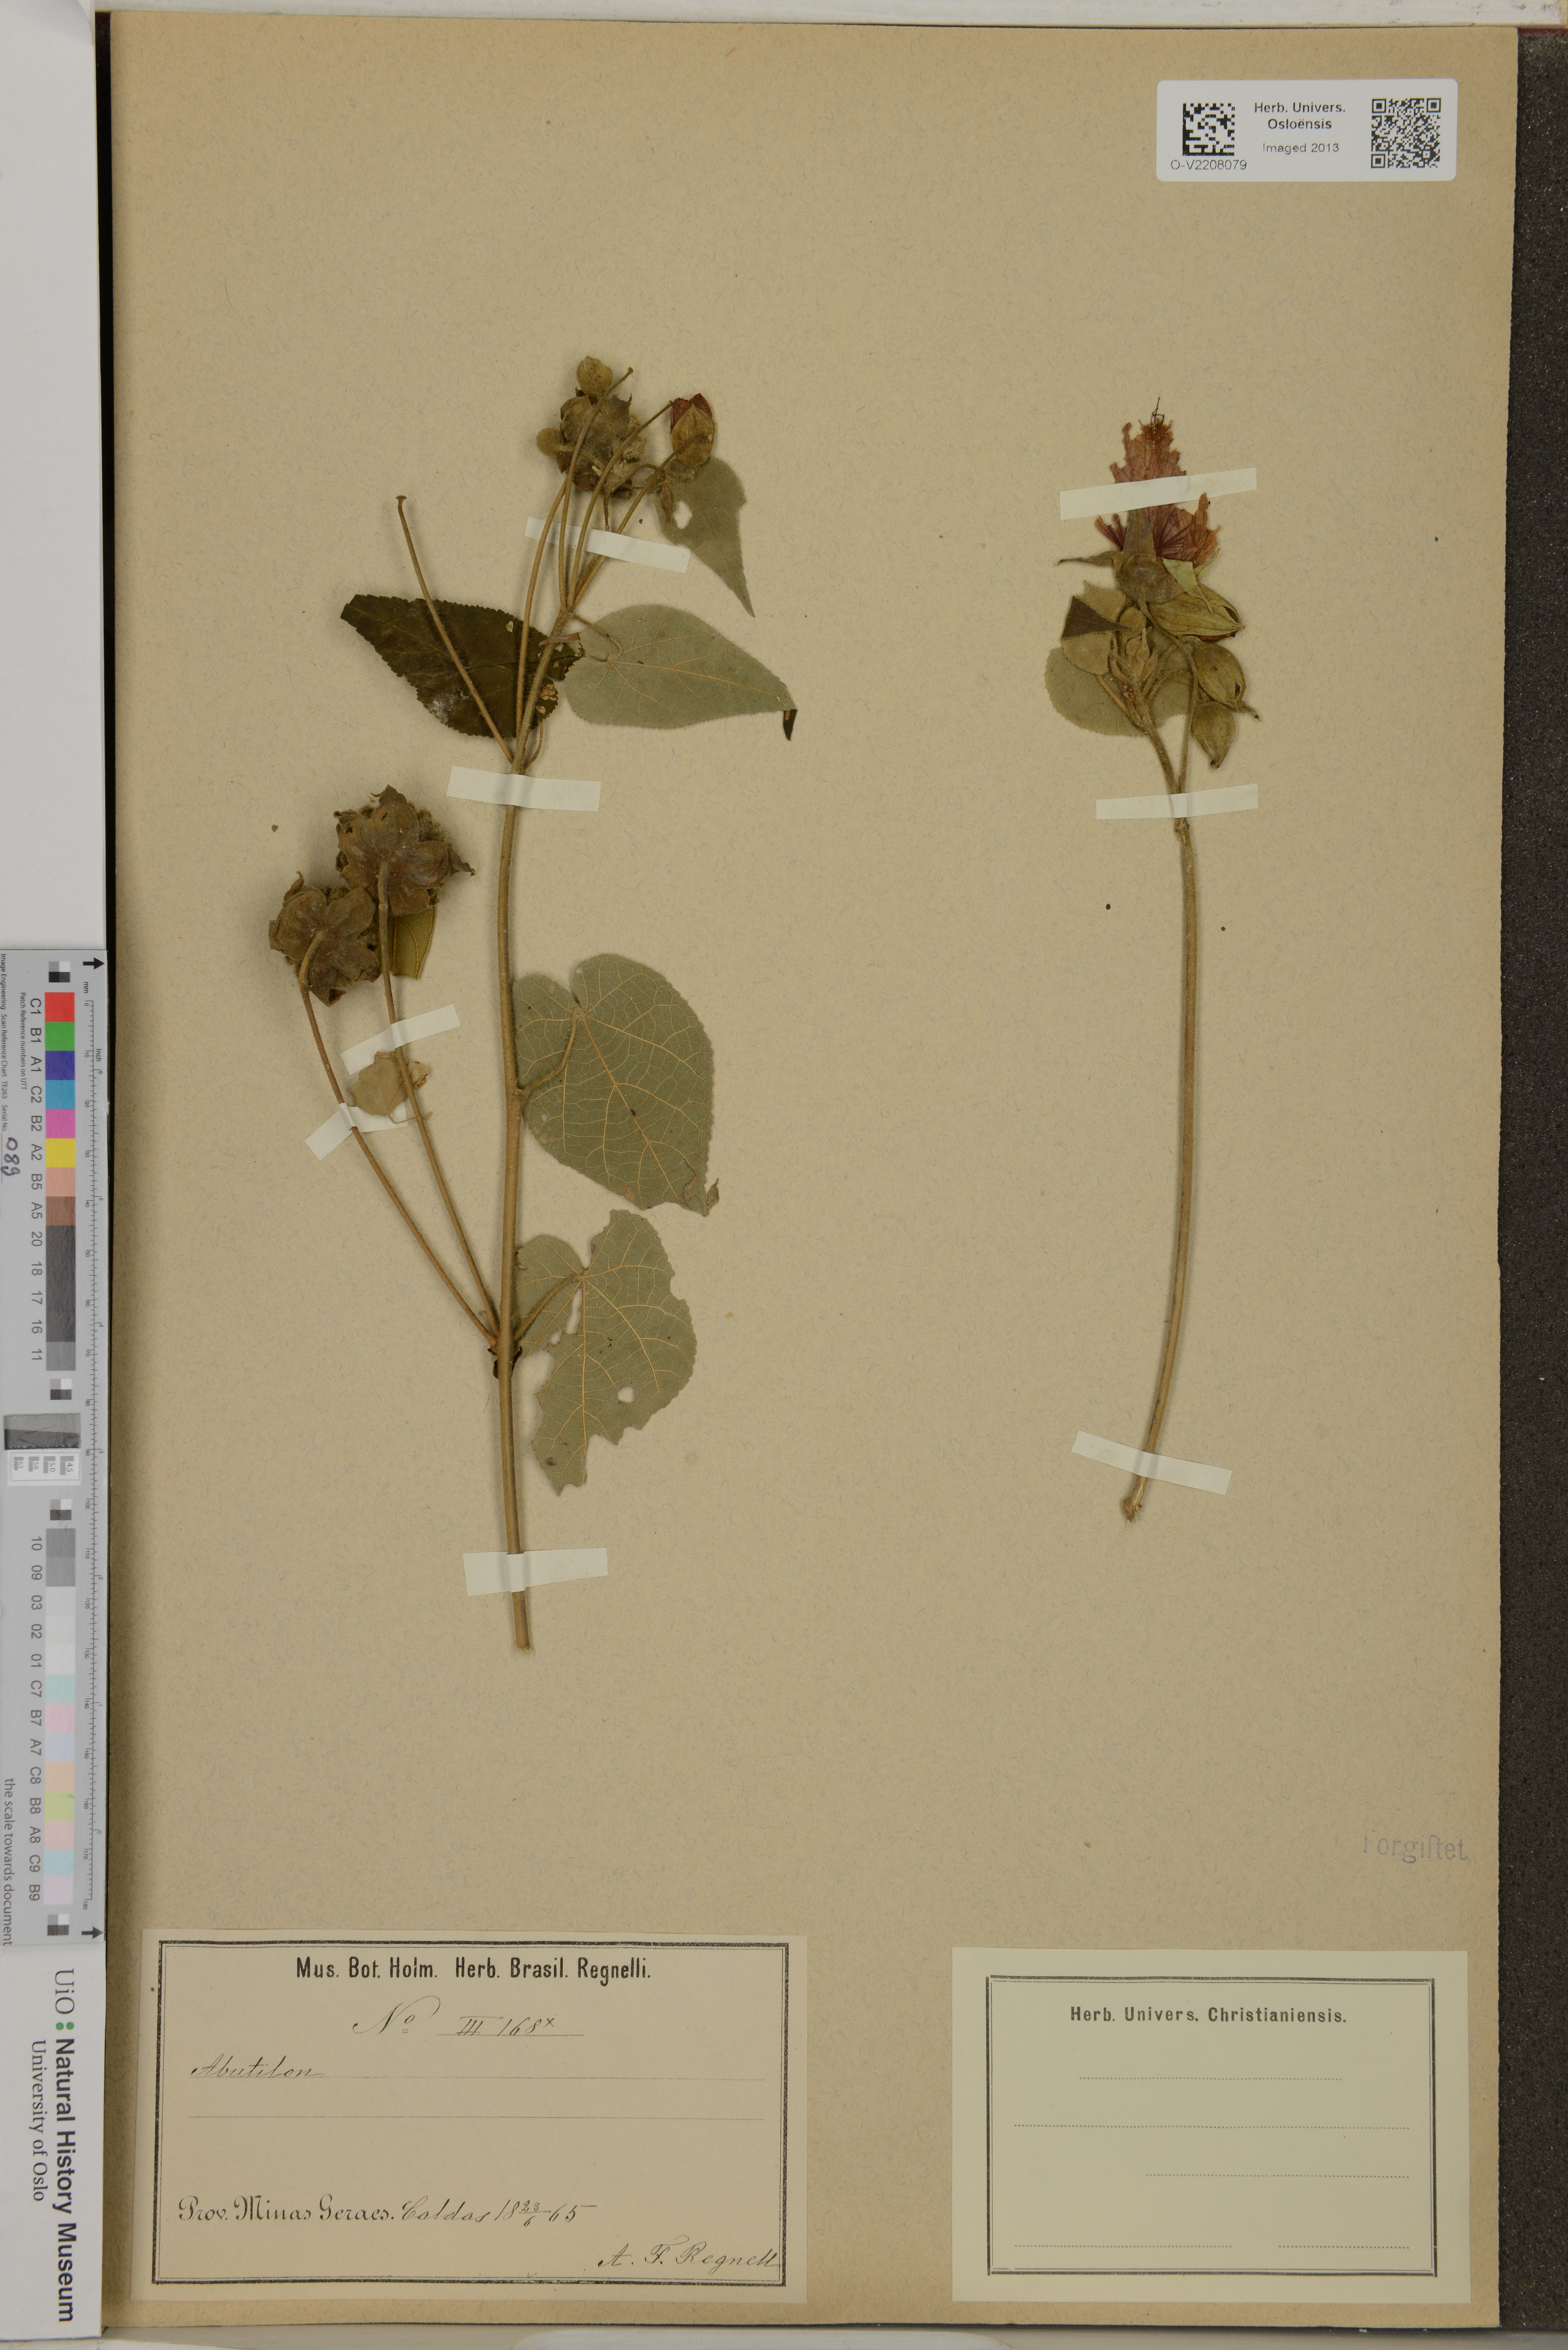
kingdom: Plantae
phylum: Tracheophyta
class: Magnoliopsida
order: Malvales
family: Malvaceae
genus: Abutilon
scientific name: Abutilon
